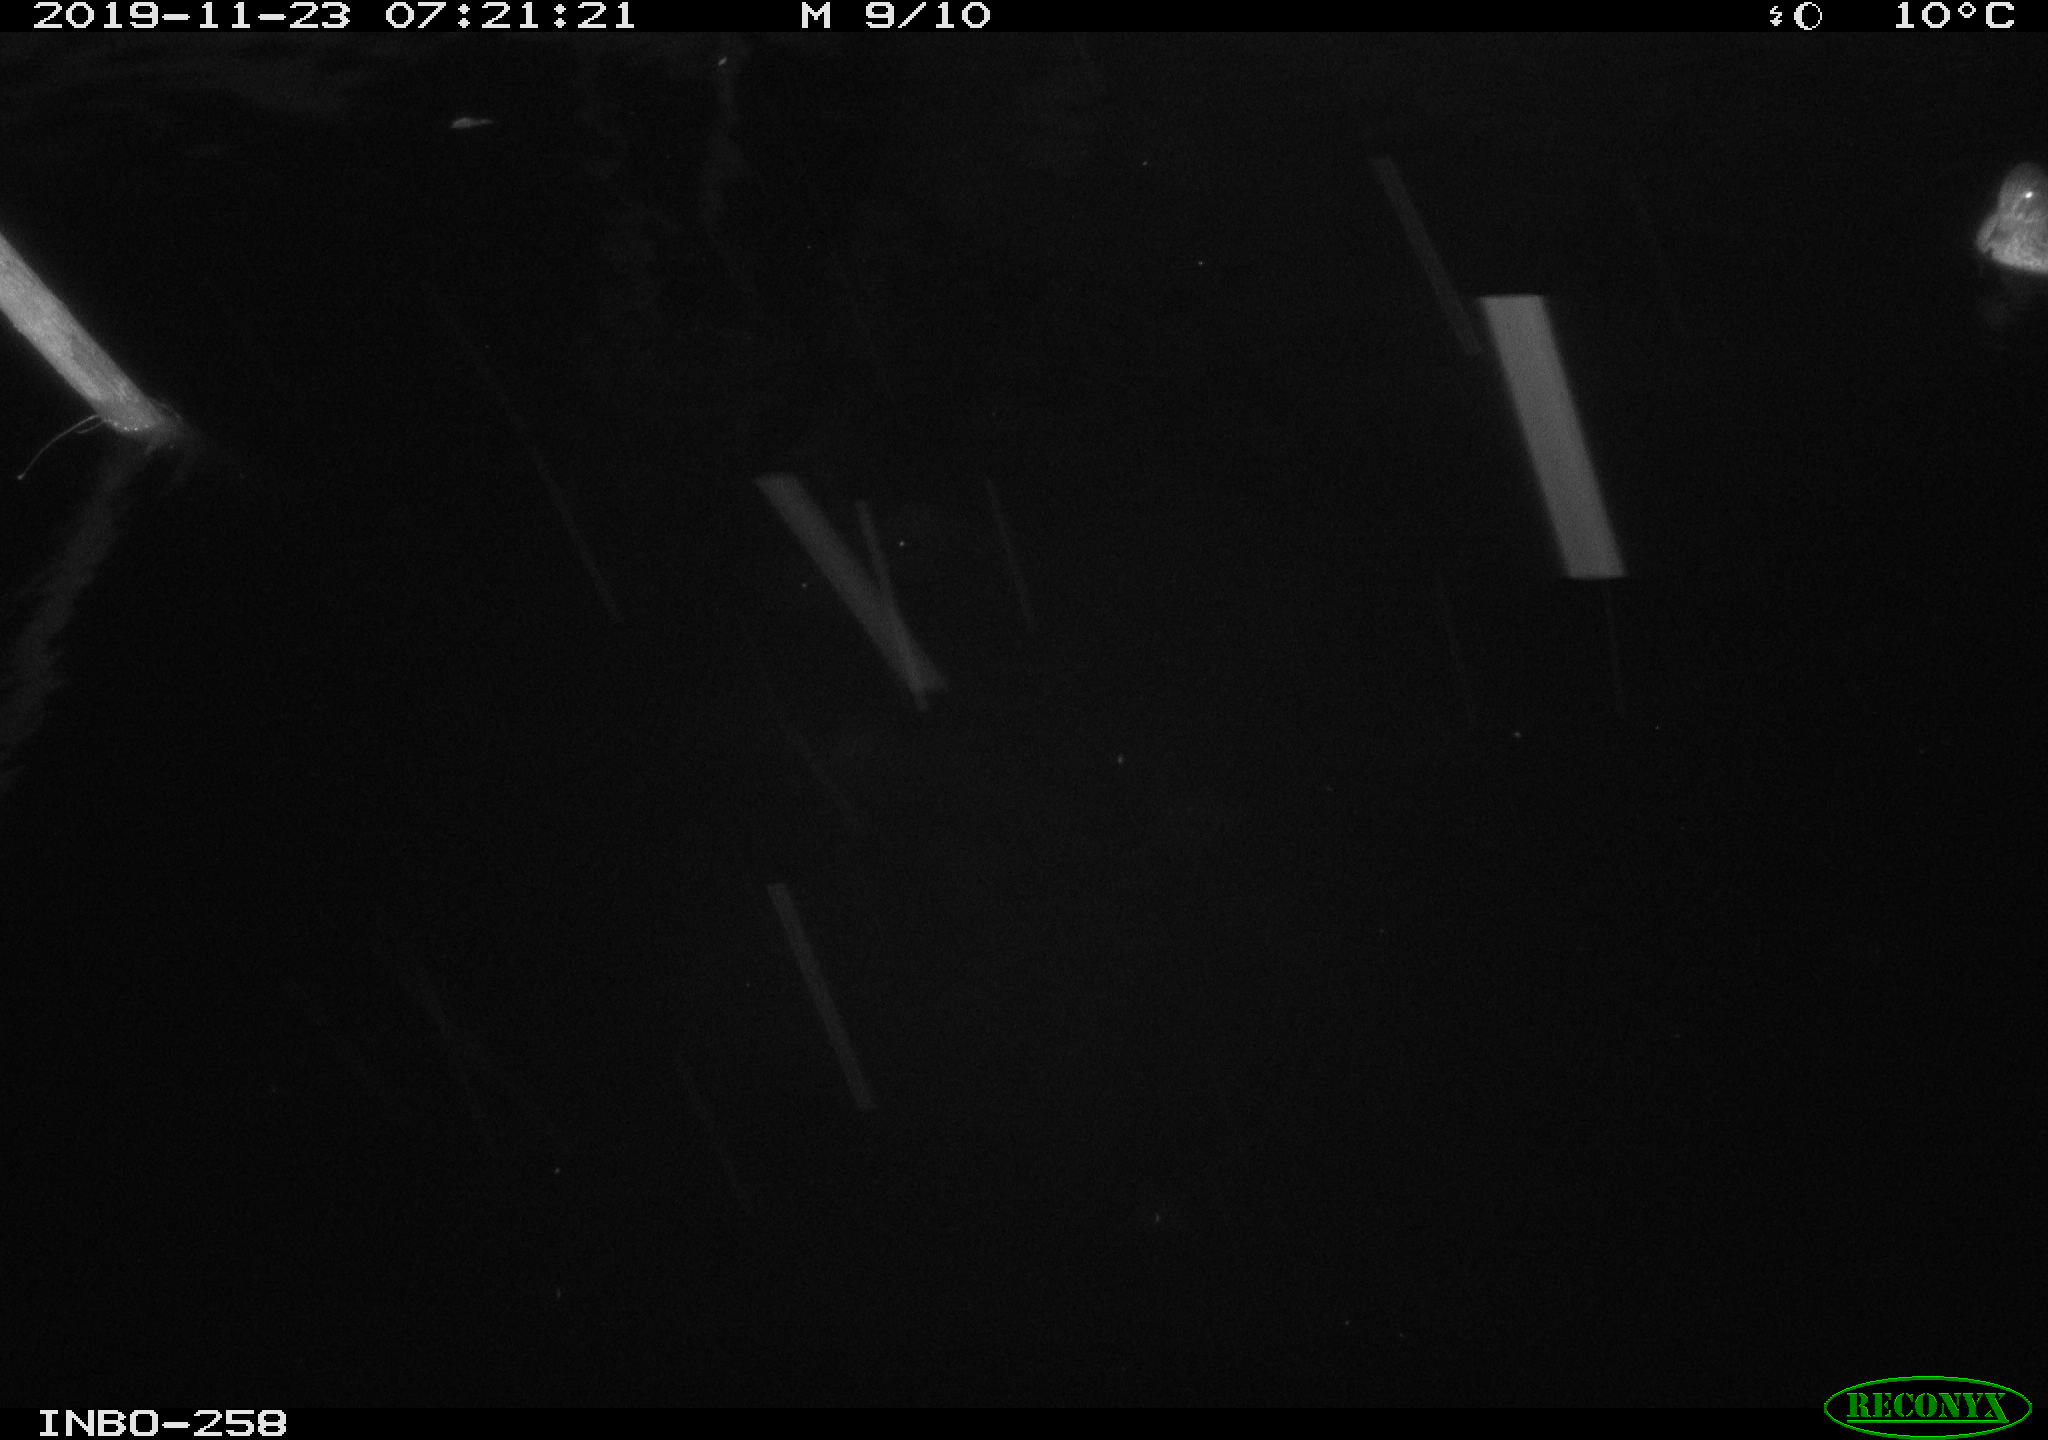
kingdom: Animalia
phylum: Chordata
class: Aves
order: Anseriformes
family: Anatidae
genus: Anas
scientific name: Anas platyrhynchos
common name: Mallard
